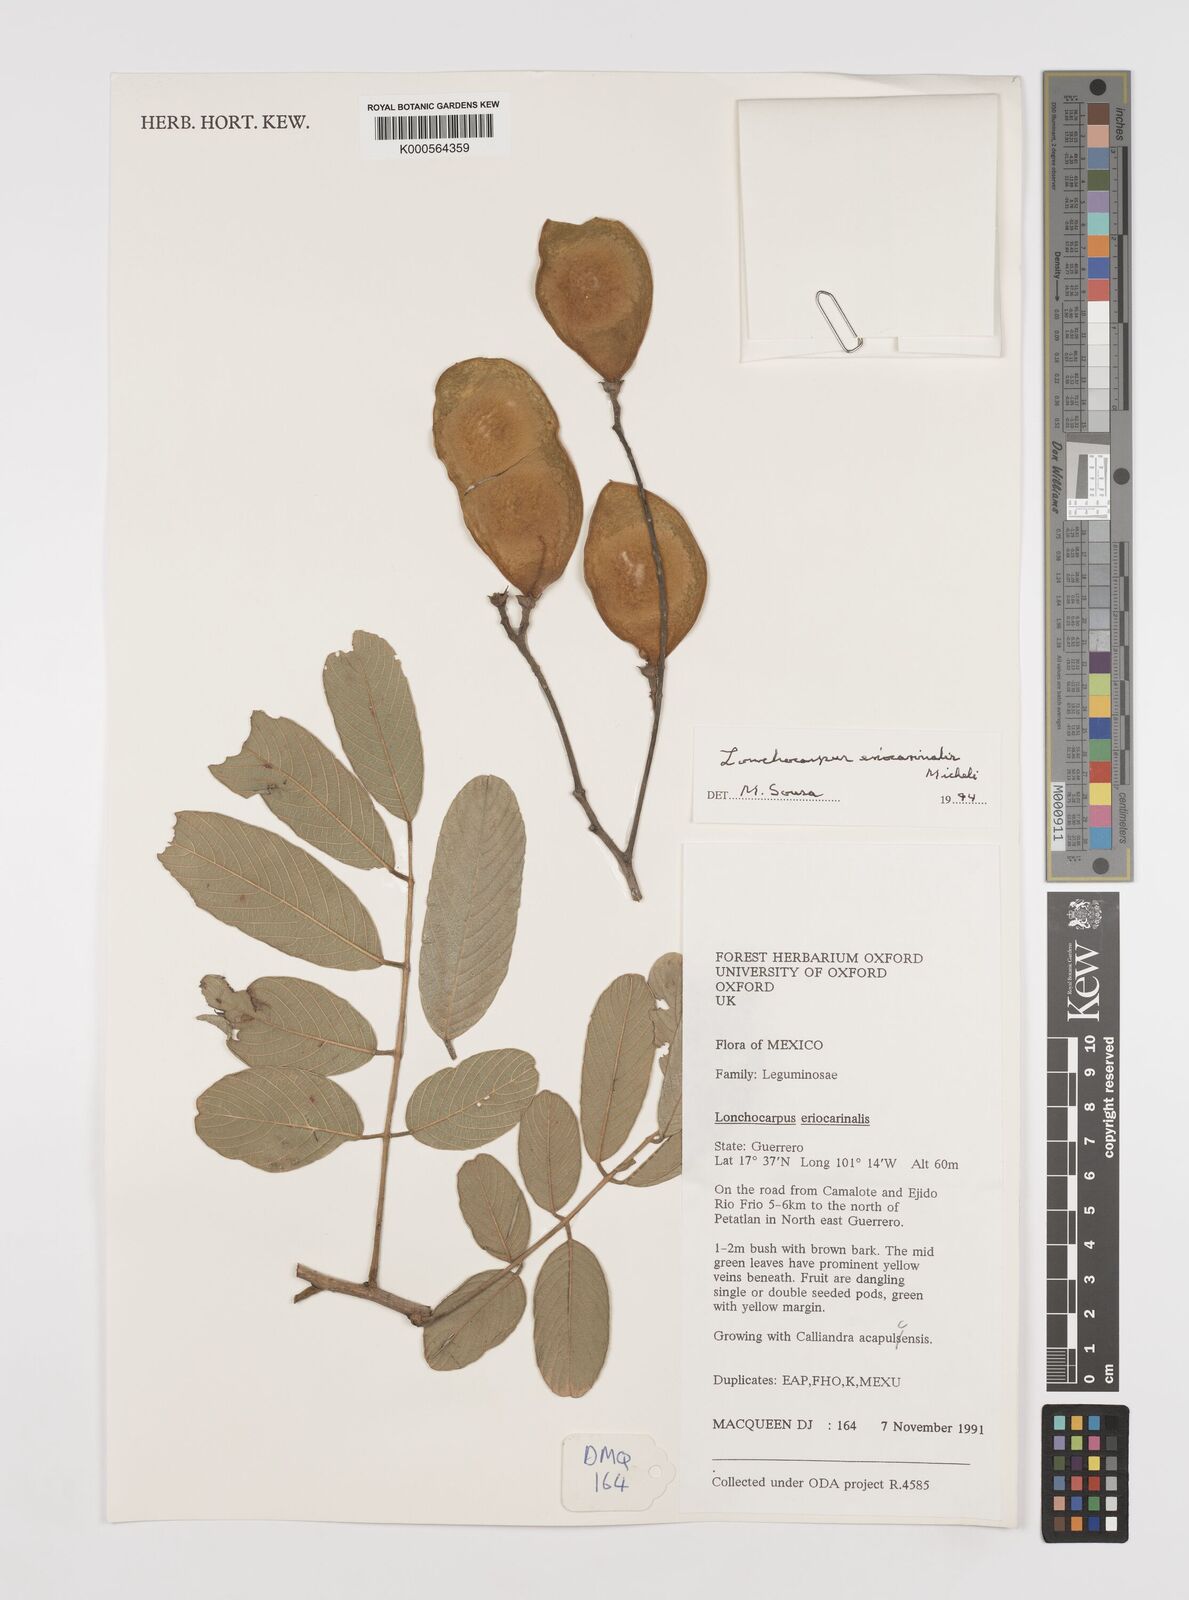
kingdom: Plantae
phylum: Tracheophyta
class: Magnoliopsida
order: Fabales
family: Fabaceae
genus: Lonchocarpus
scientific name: Lonchocarpus eriocarinalis
